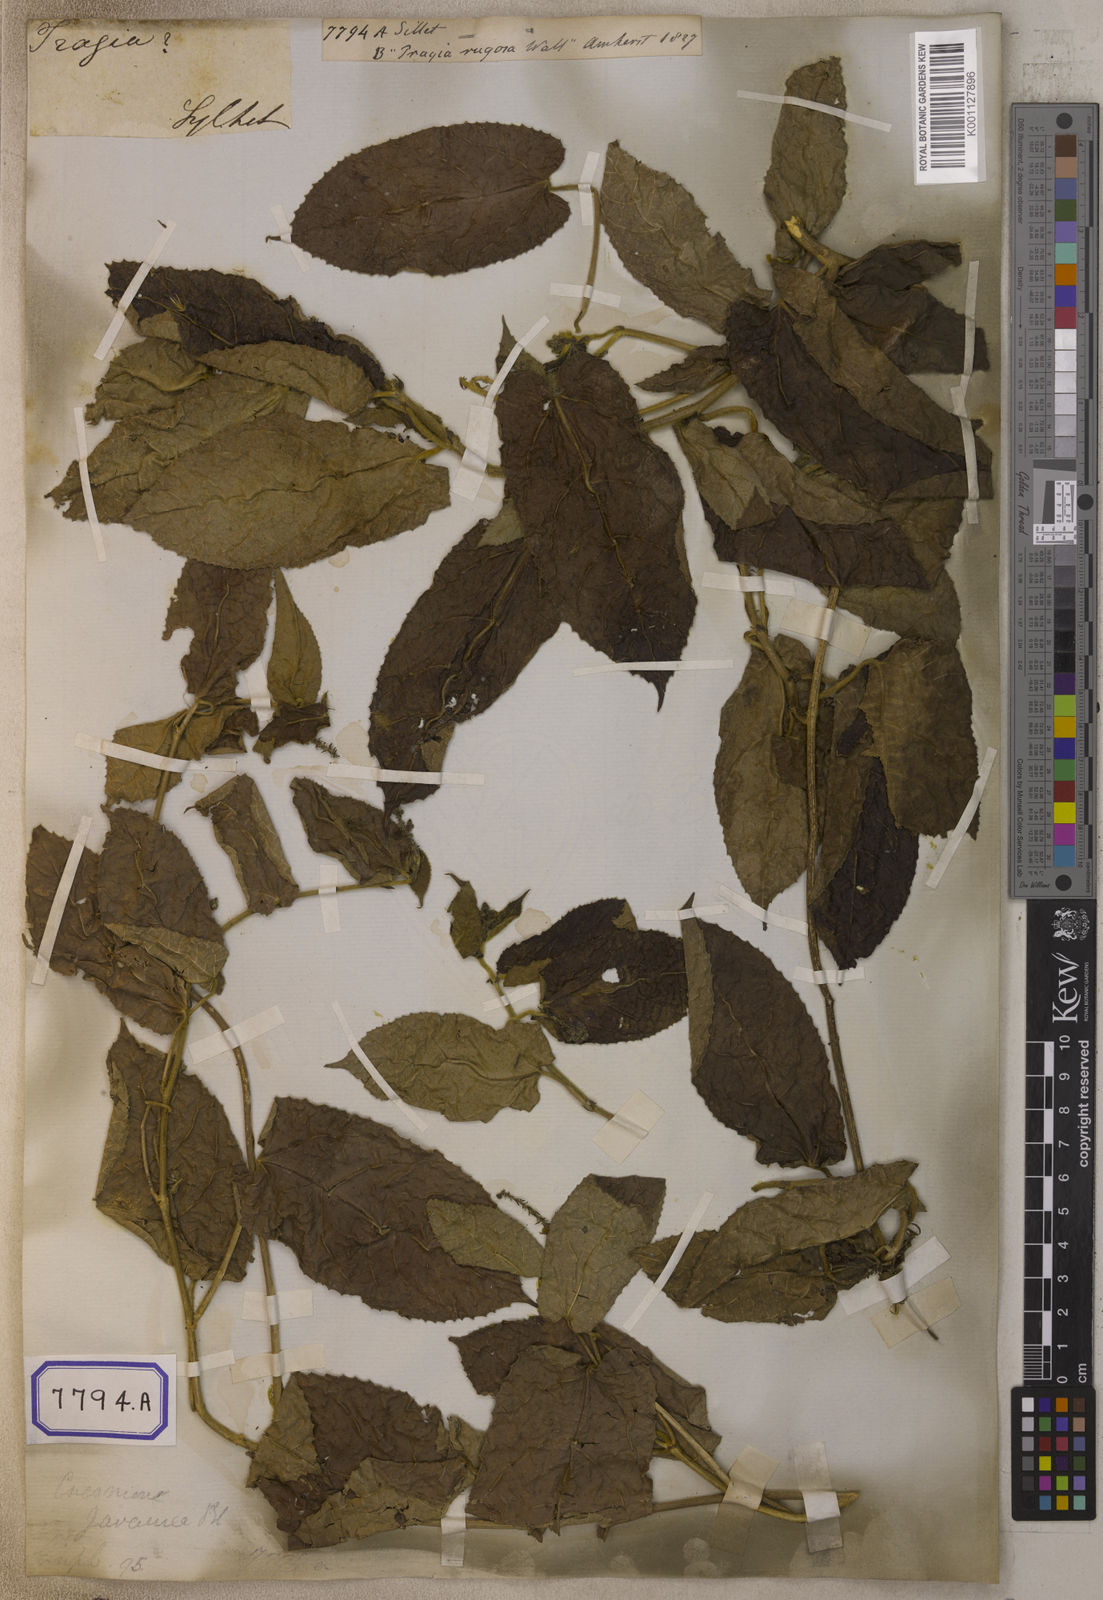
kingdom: Plantae
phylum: Tracheophyta
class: Magnoliopsida
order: Malpighiales
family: Euphorbiaceae
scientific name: Euphorbiaceae
